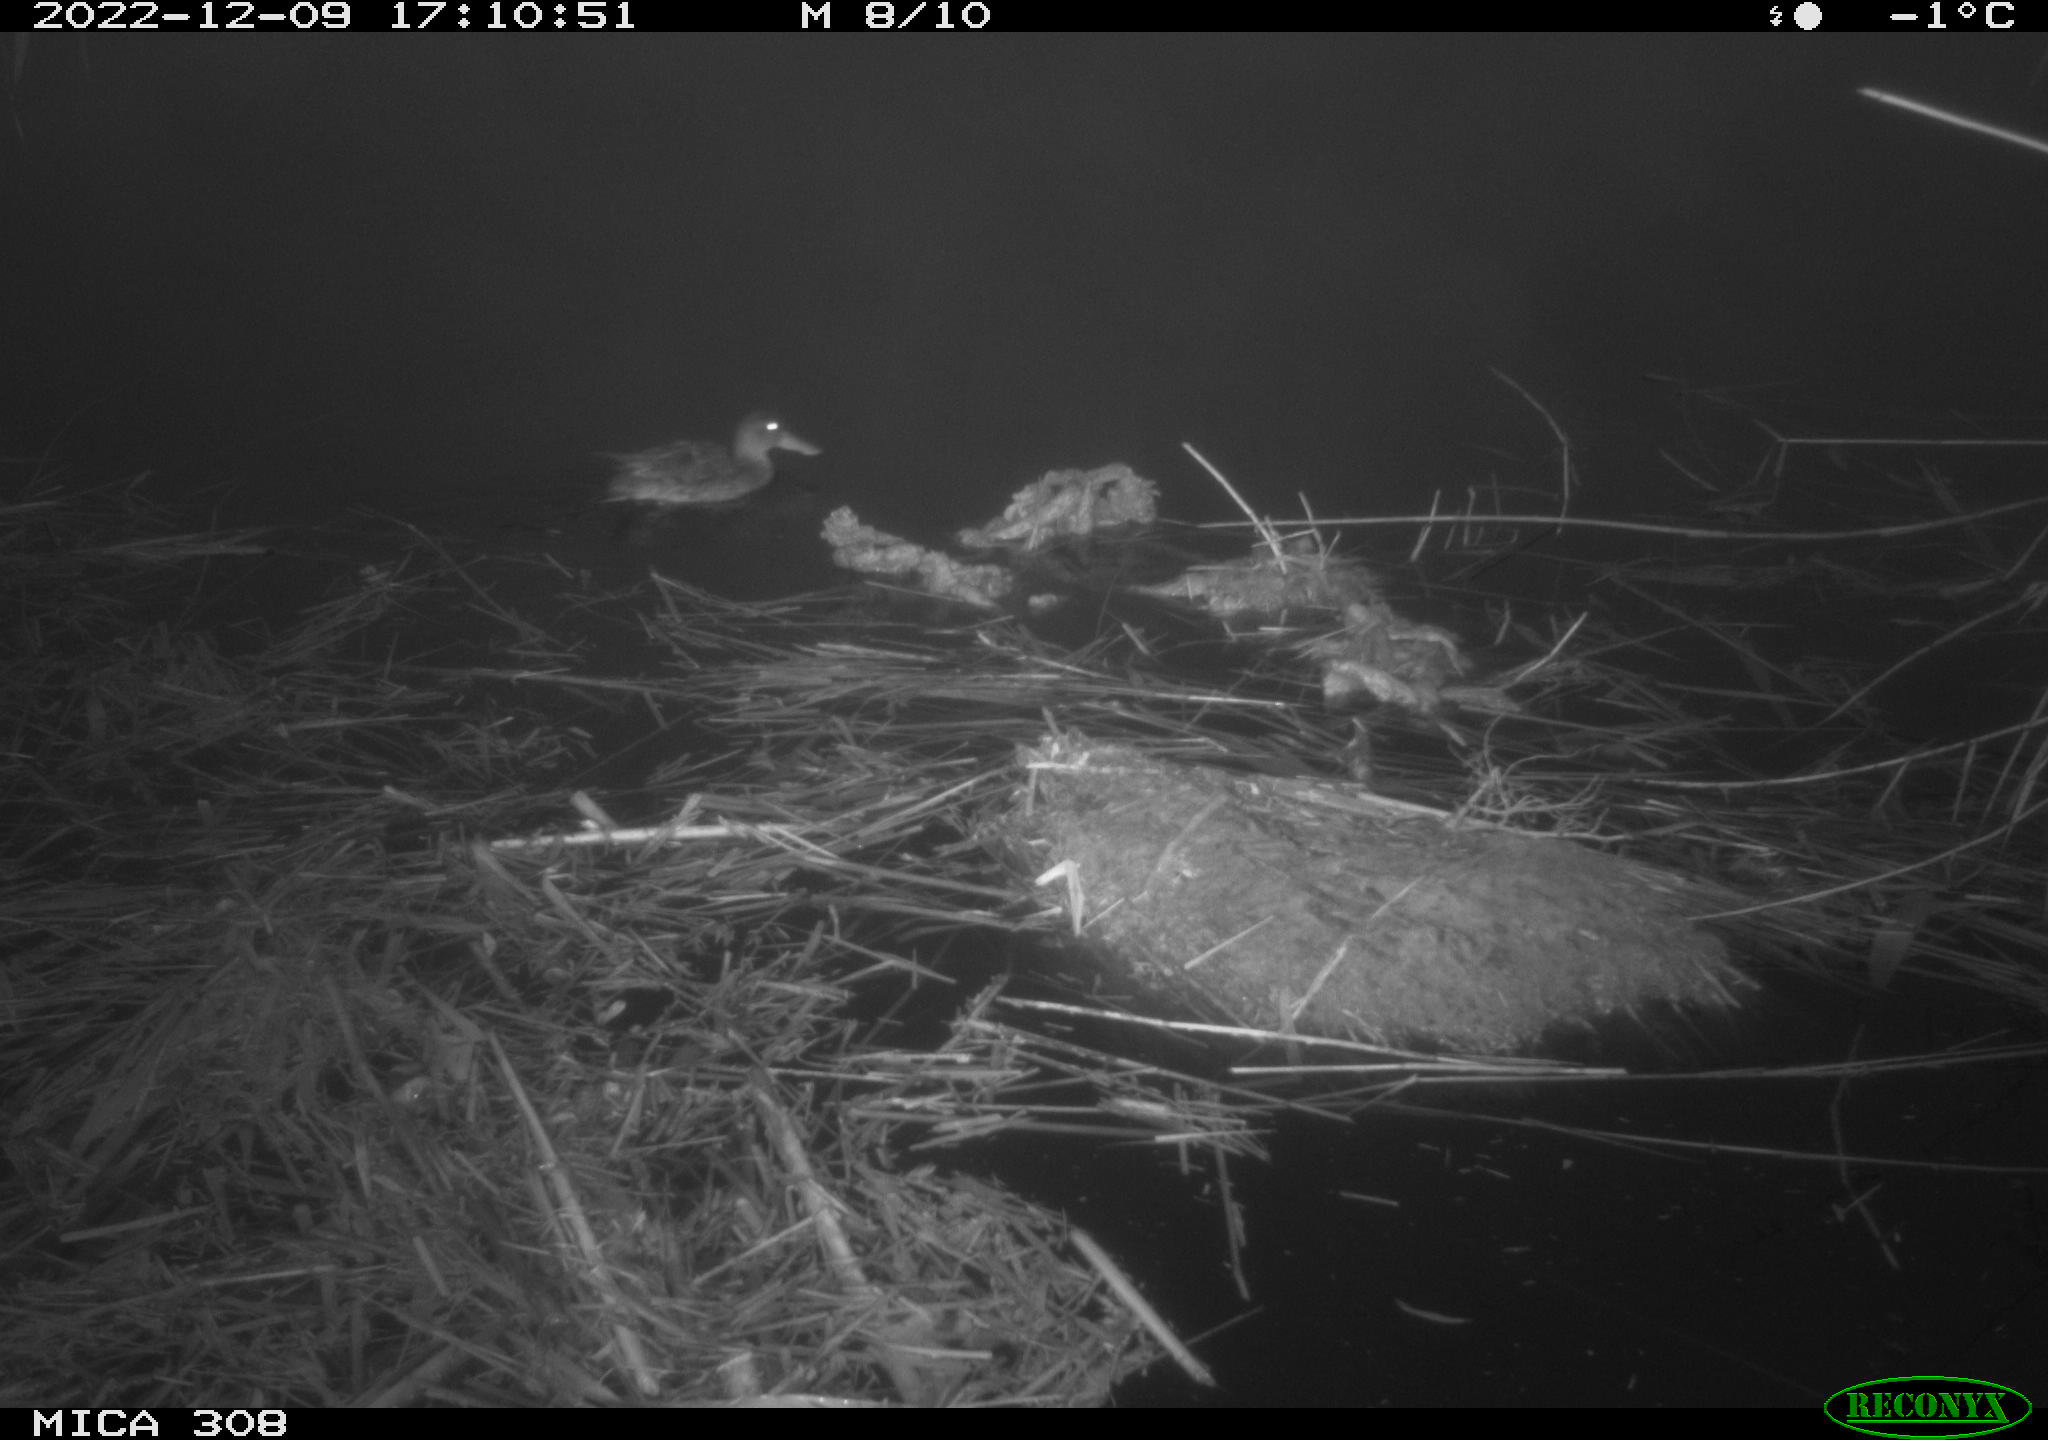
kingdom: Animalia
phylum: Chordata
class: Aves
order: Anseriformes
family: Anatidae
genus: Anas
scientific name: Anas
